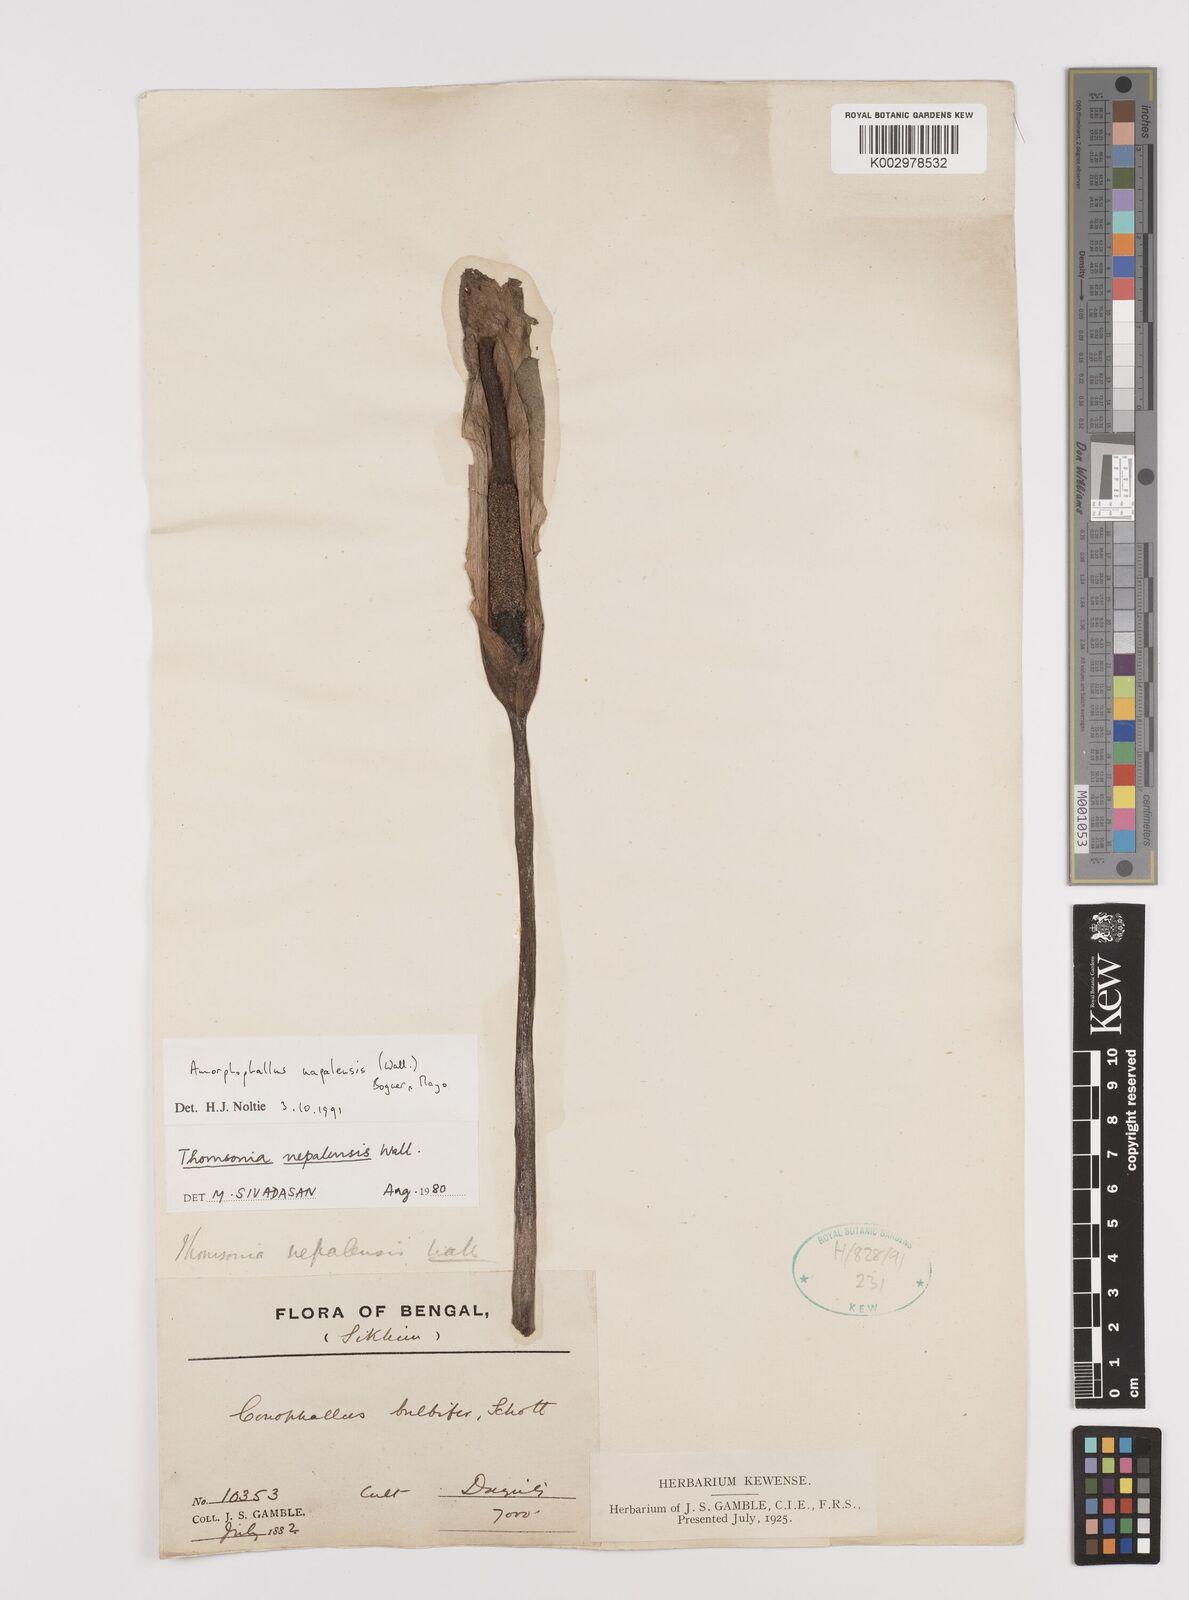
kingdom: Plantae
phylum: Tracheophyta
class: Liliopsida
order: Alismatales
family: Araceae
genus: Amorphophallus
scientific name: Amorphophallus napalensis
